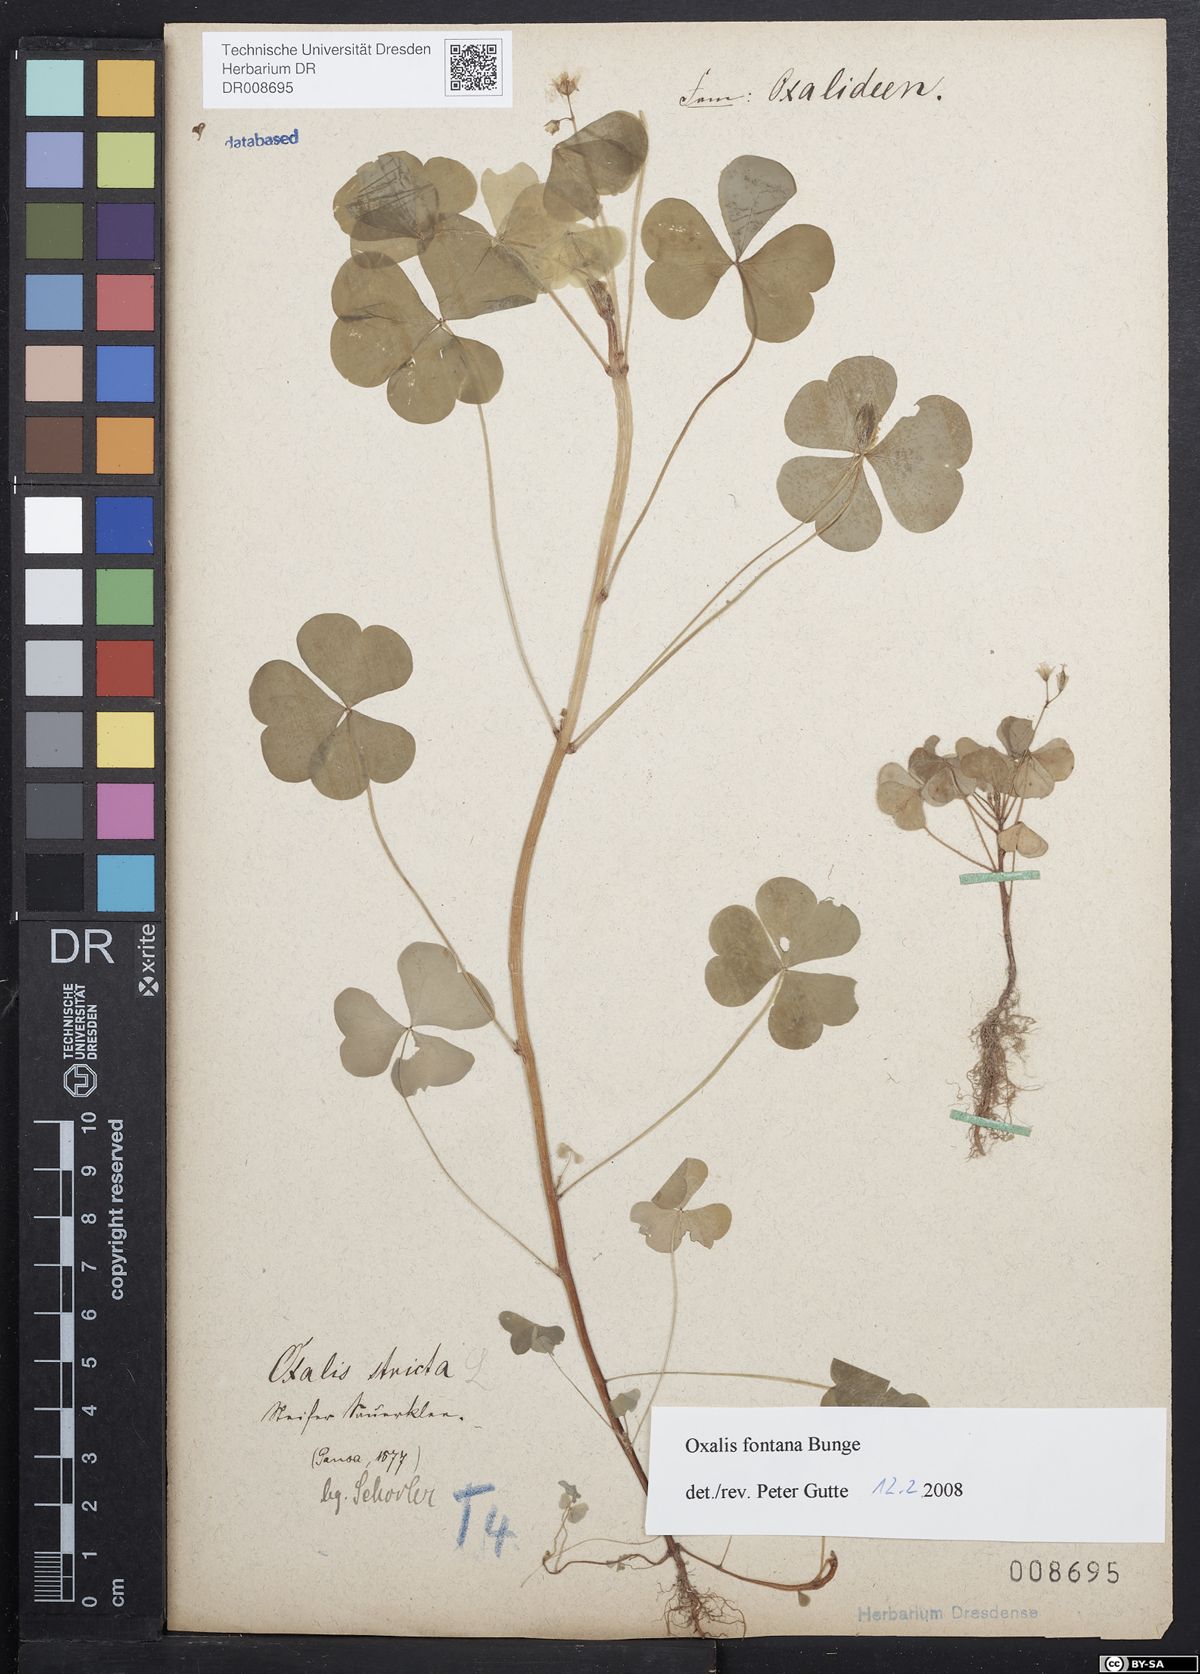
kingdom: Plantae
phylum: Tracheophyta
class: Magnoliopsida
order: Oxalidales
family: Oxalidaceae
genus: Oxalis
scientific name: Oxalis stricta
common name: Upright yellow-sorrel
